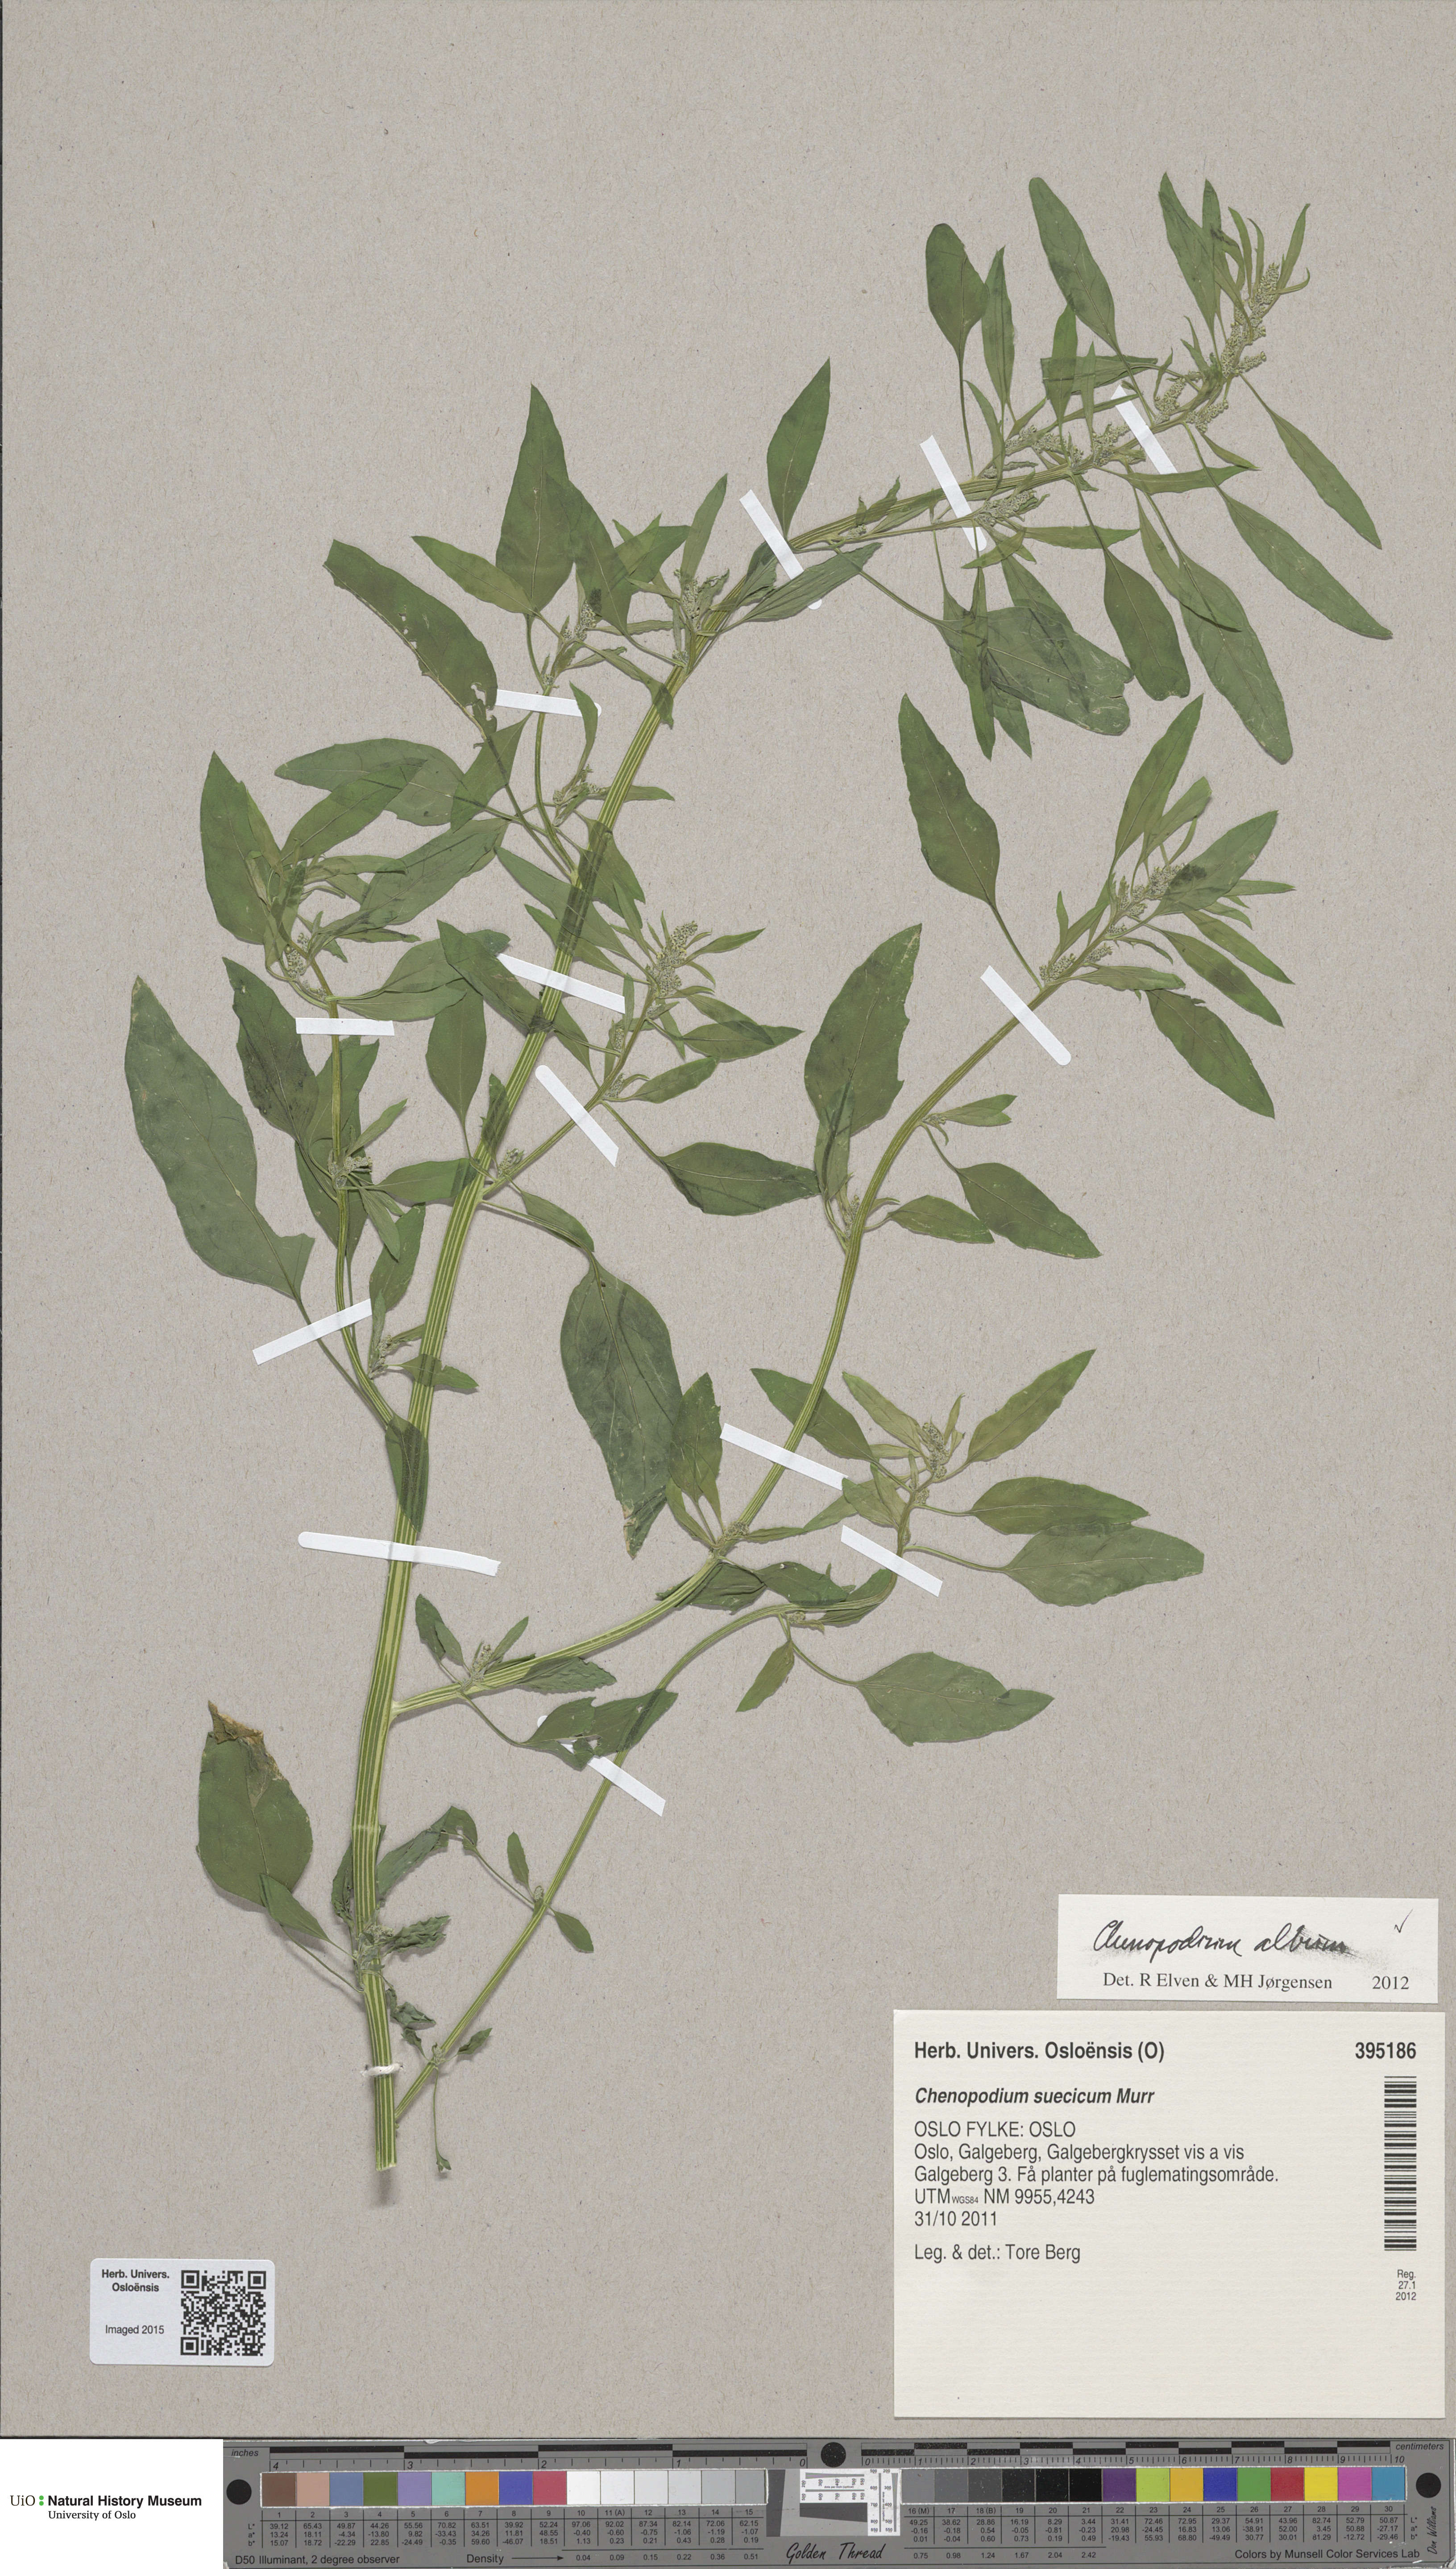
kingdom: Plantae
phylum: Tracheophyta
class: Magnoliopsida
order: Caryophyllales
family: Amaranthaceae
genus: Chenopodium
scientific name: Chenopodium album
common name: Fat-hen
